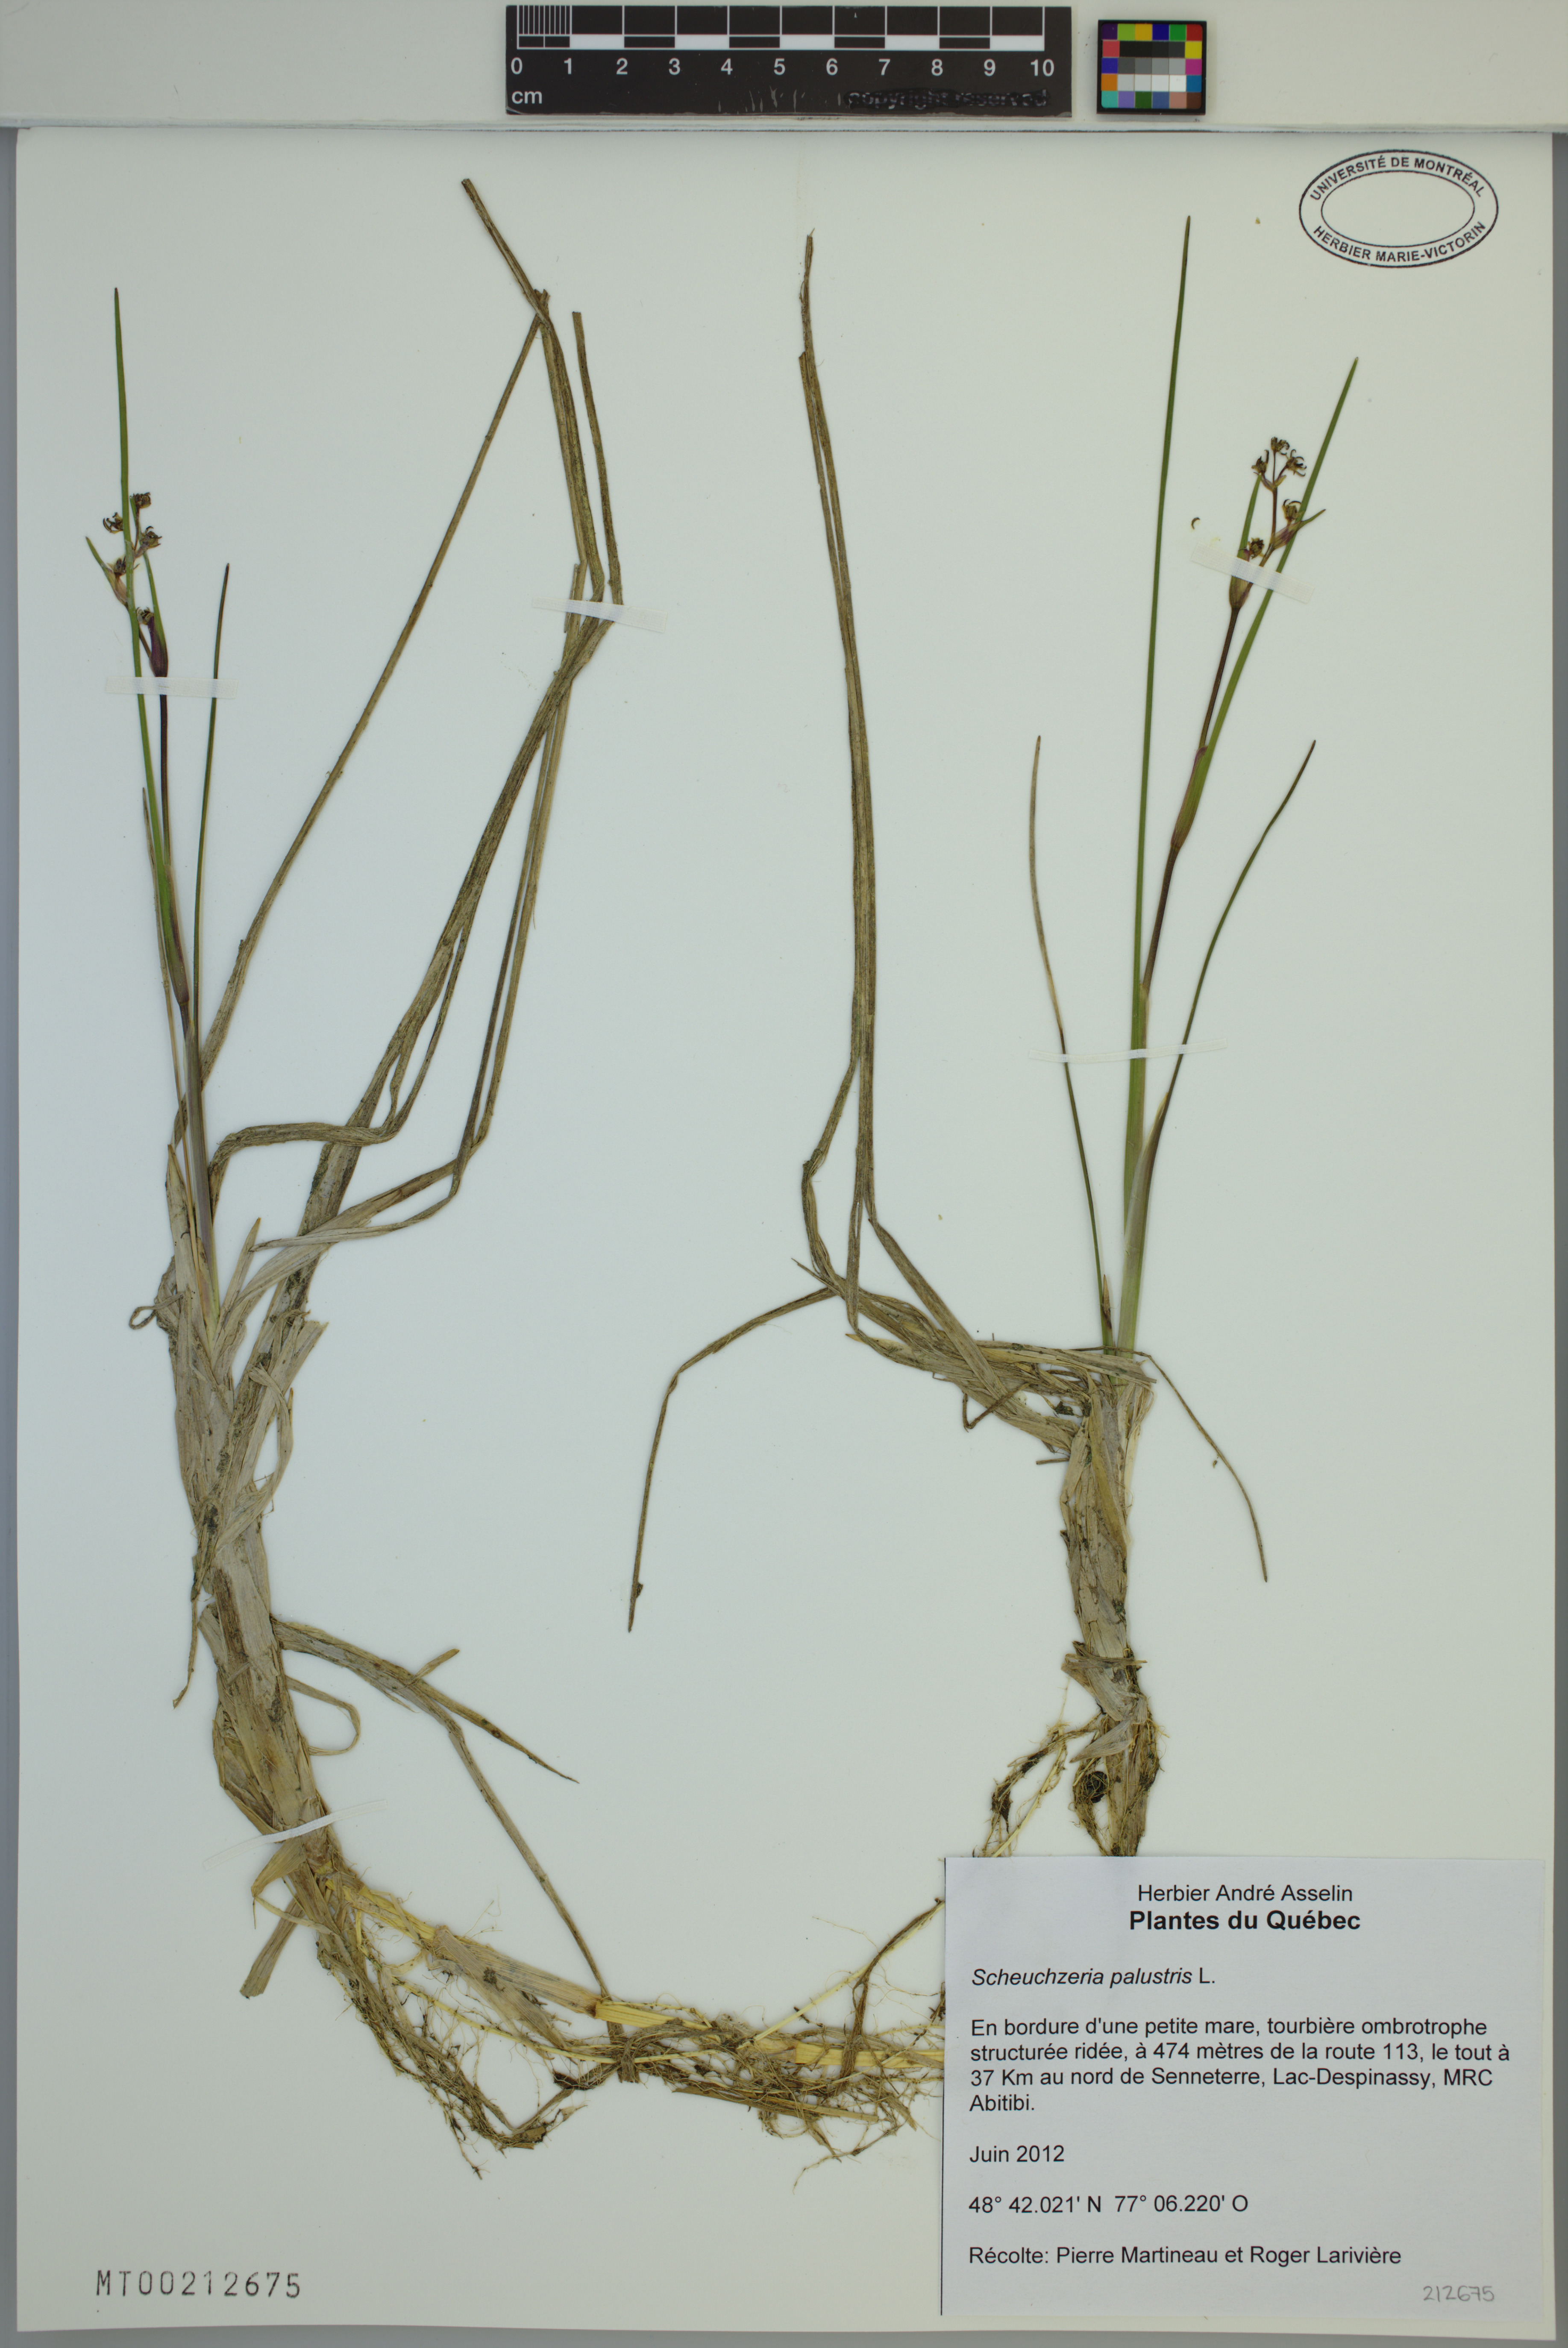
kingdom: Plantae
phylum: Tracheophyta
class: Liliopsida
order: Alismatales
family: Scheuchzeriaceae
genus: Scheuchzeria
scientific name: Scheuchzeria palustris
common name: Rannoch-rush
